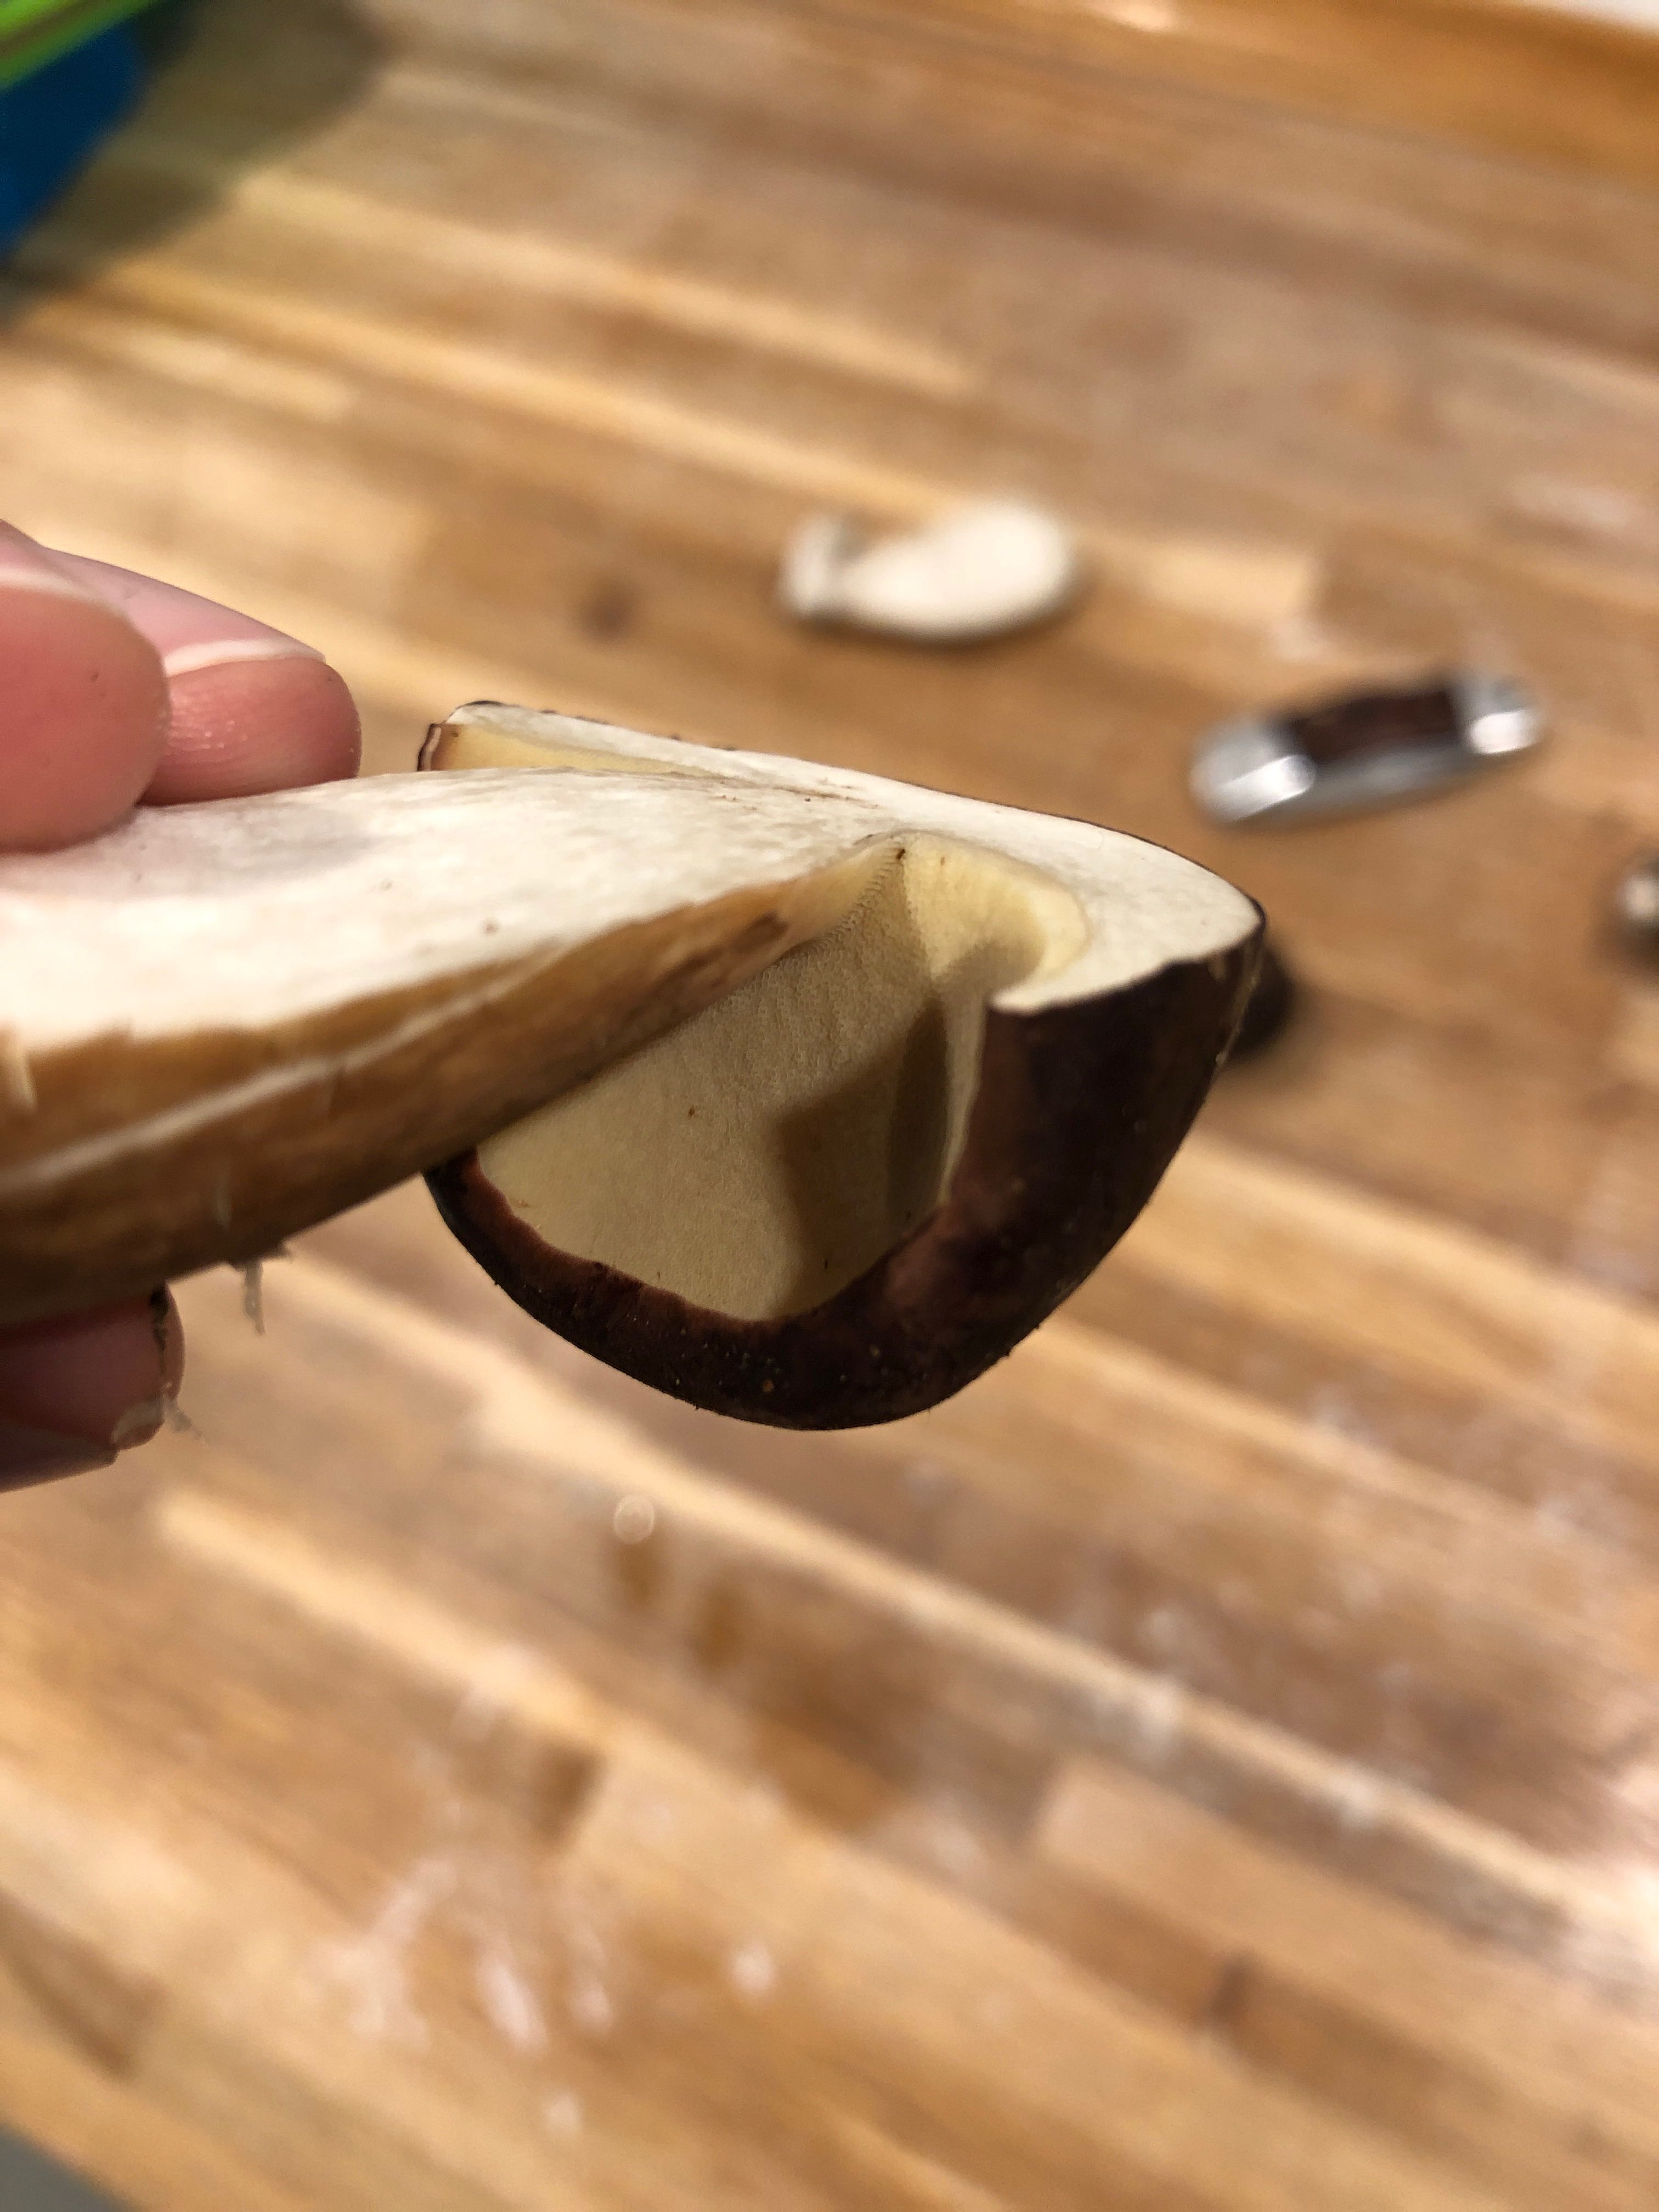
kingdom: Fungi
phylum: Basidiomycota
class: Agaricomycetes
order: Boletales
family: Boletaceae
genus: Imleria
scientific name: Imleria badia
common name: brunstokket rørhat
